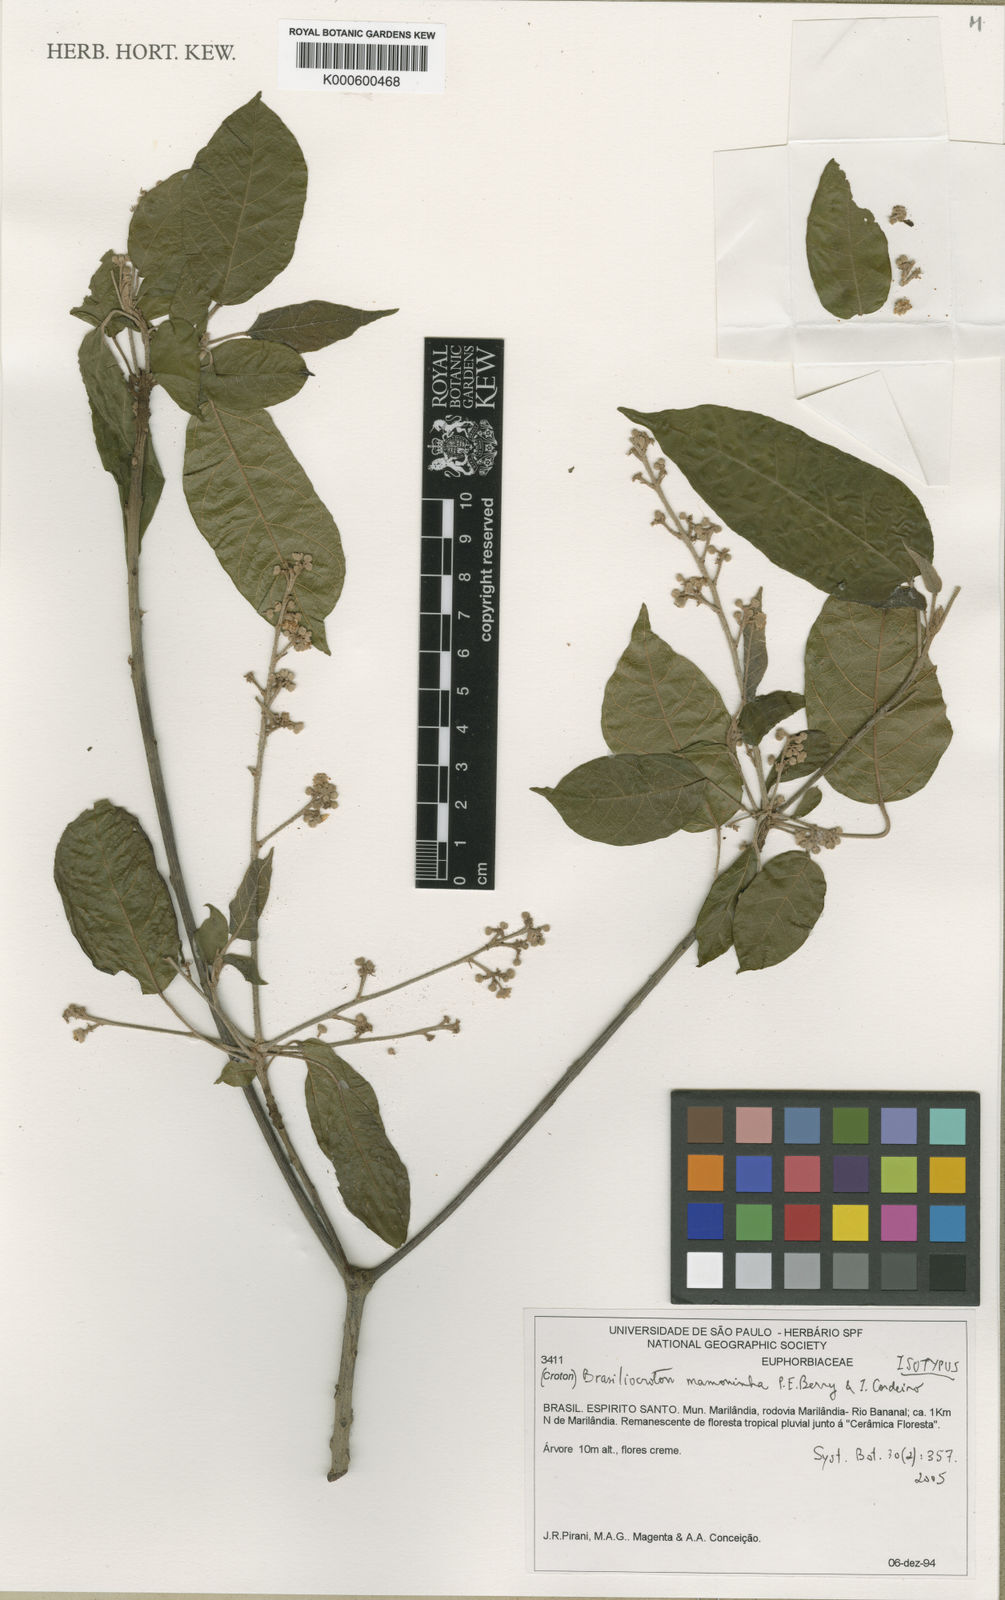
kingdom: Plantae
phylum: Tracheophyta
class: Magnoliopsida
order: Malpighiales
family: Euphorbiaceae
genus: Brasiliocroton
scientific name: Brasiliocroton mamoninha
